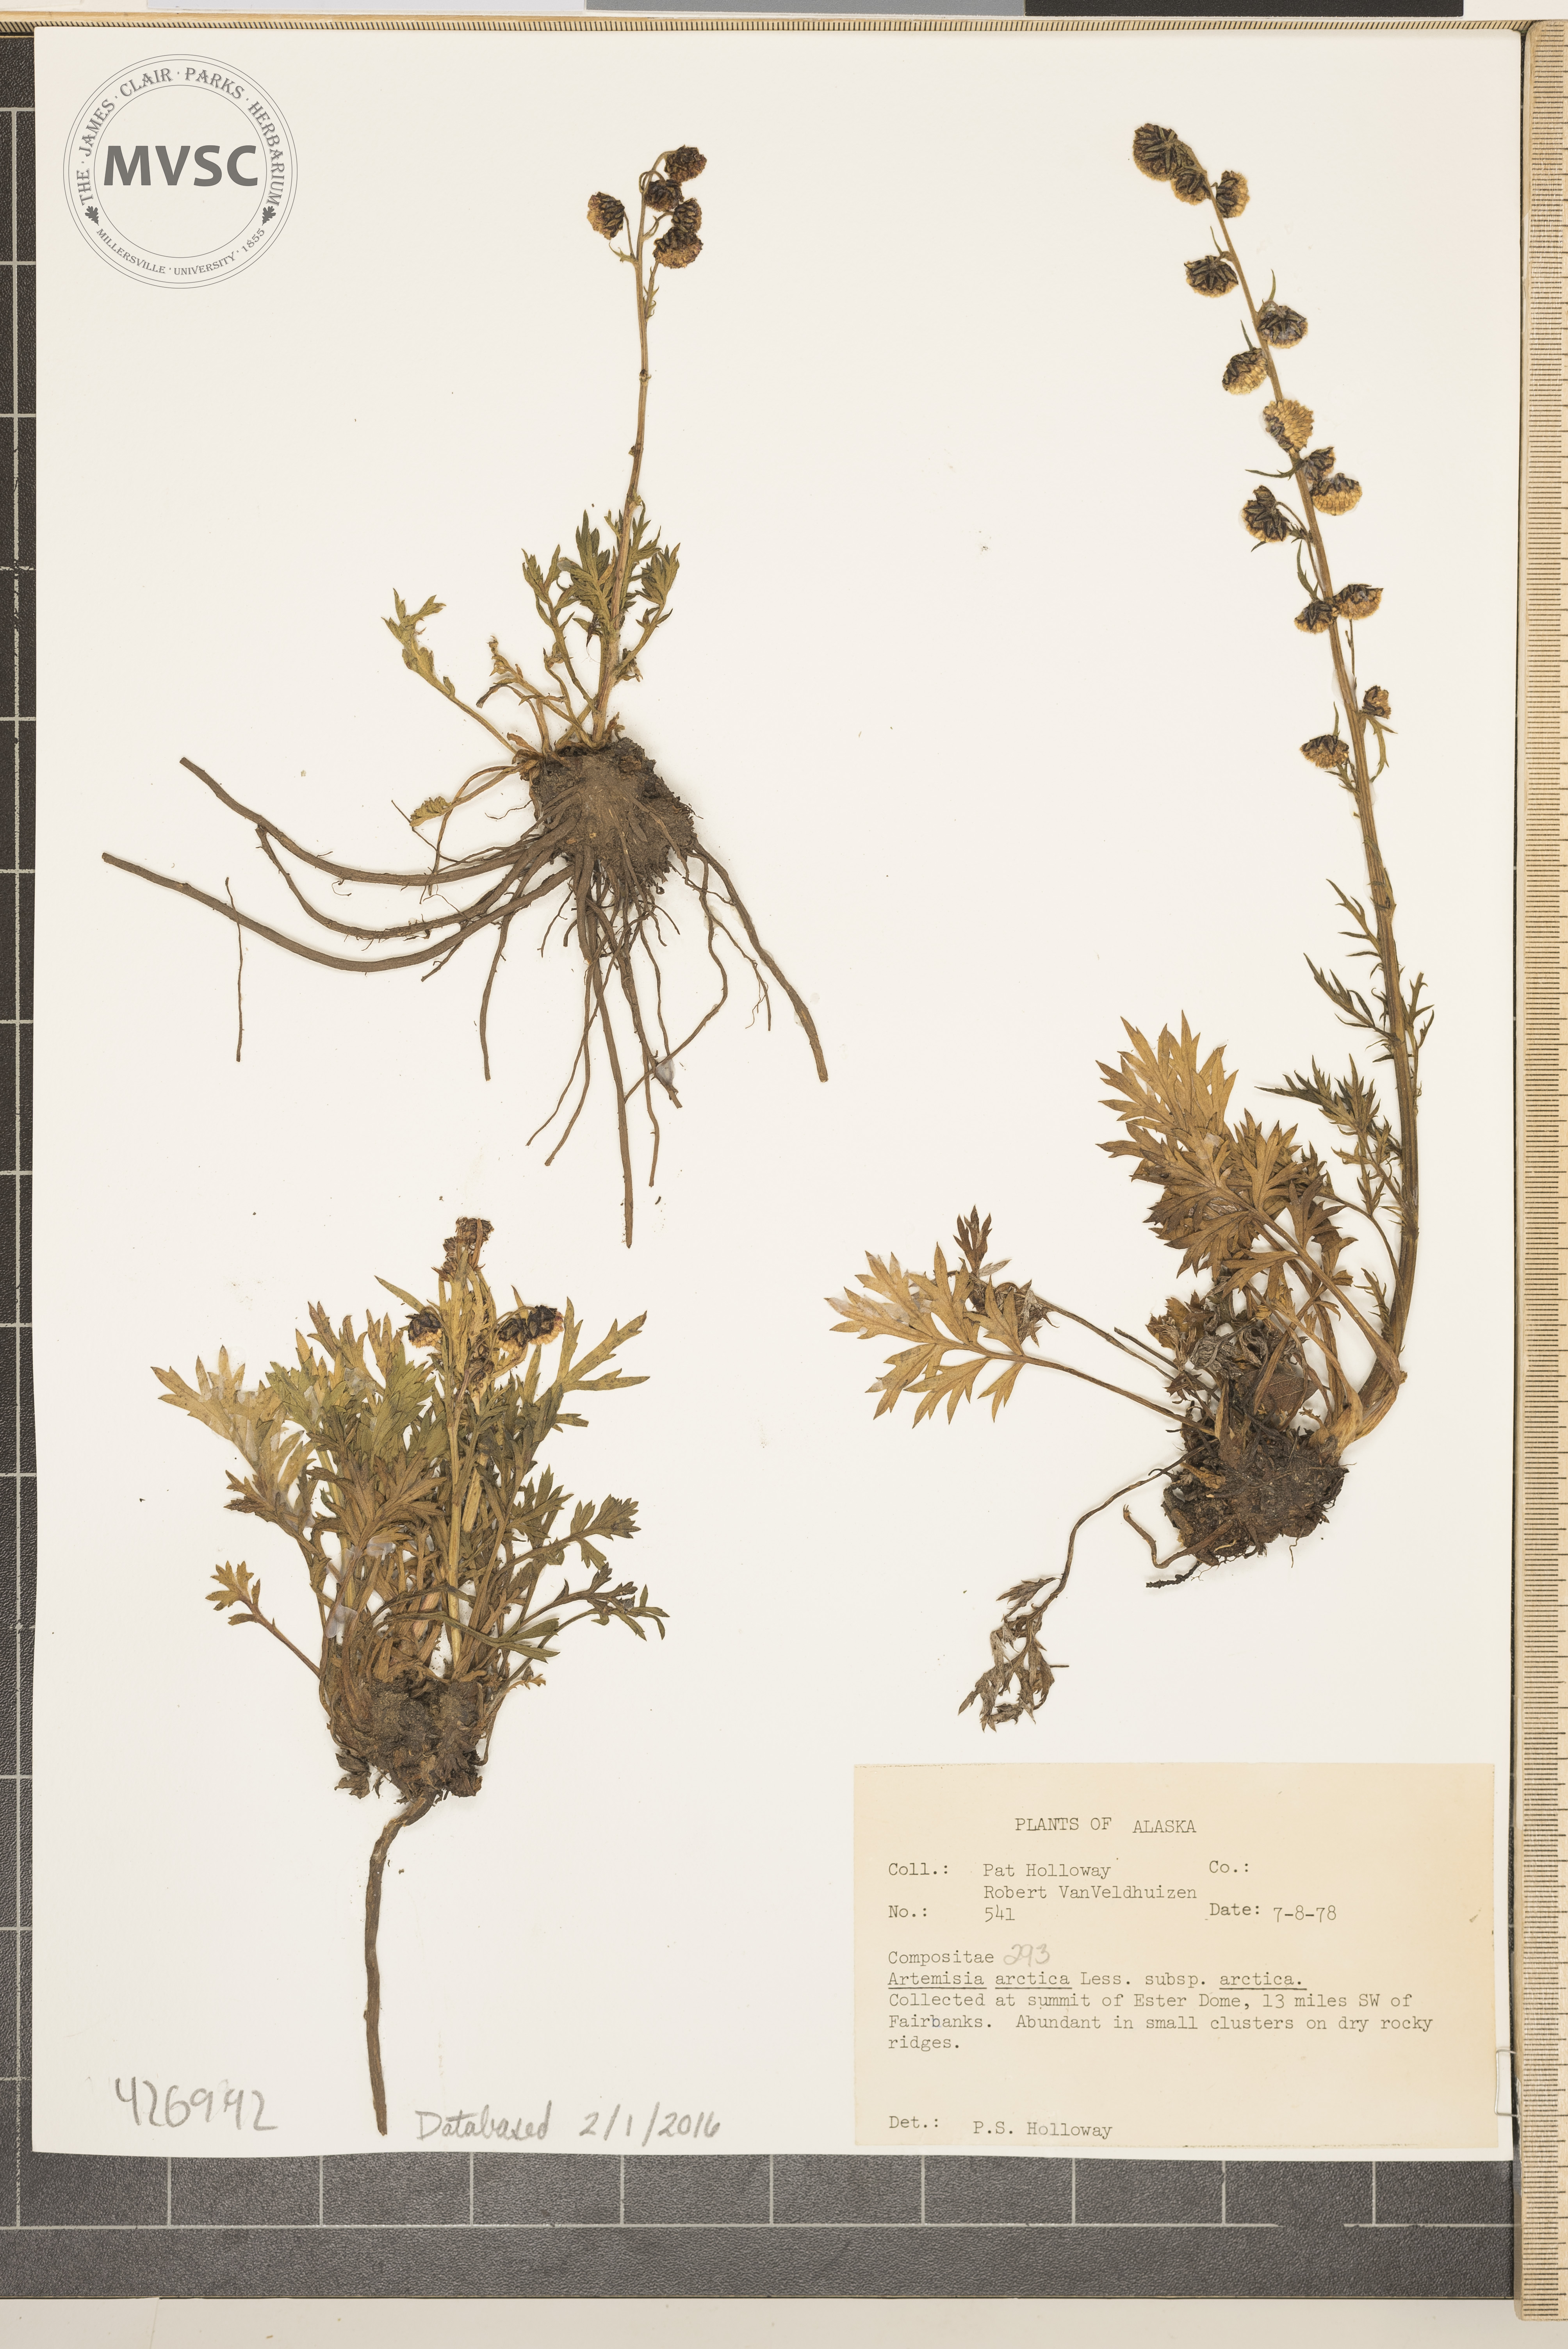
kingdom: Plantae
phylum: Tracheophyta
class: Magnoliopsida
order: Asterales
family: Asteraceae
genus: Artemisia
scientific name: Artemisia arctica
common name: Boreal sagebrush
